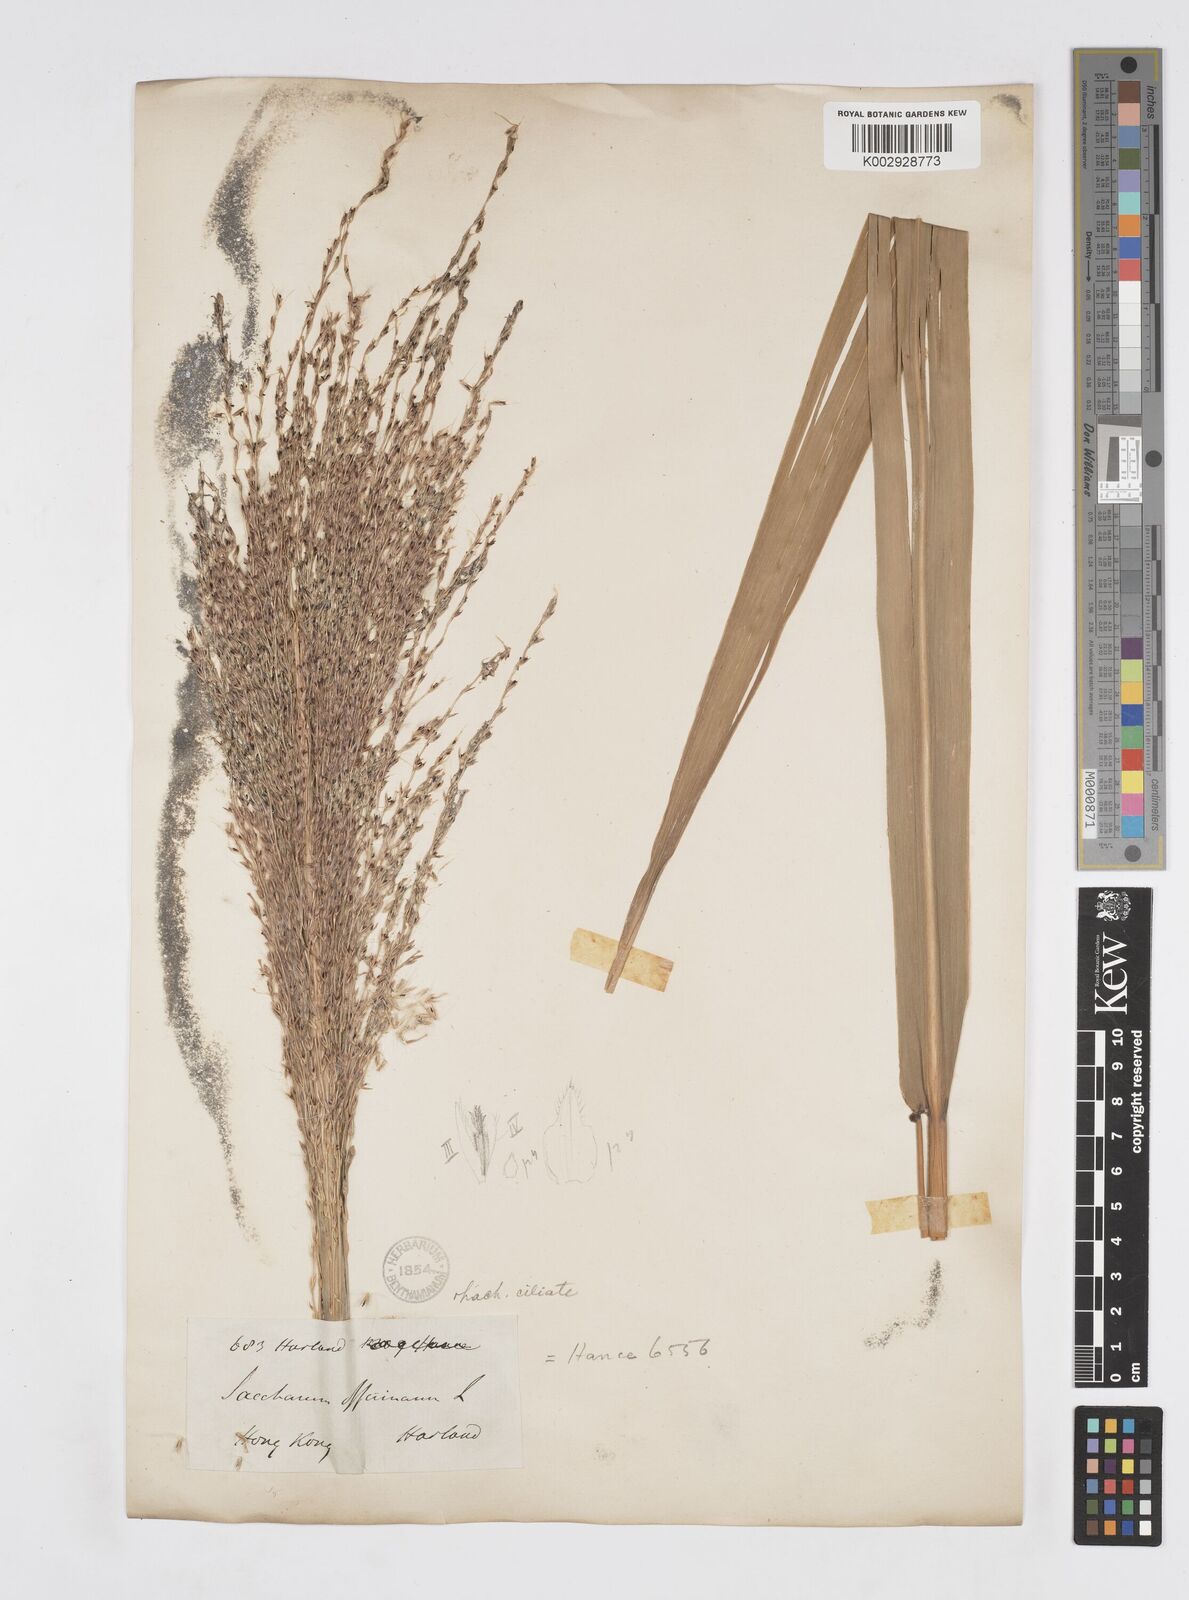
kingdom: Plantae
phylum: Tracheophyta
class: Liliopsida
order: Poales
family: Poaceae
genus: Saccharum
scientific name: Saccharum officinarum
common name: Sugarcane
